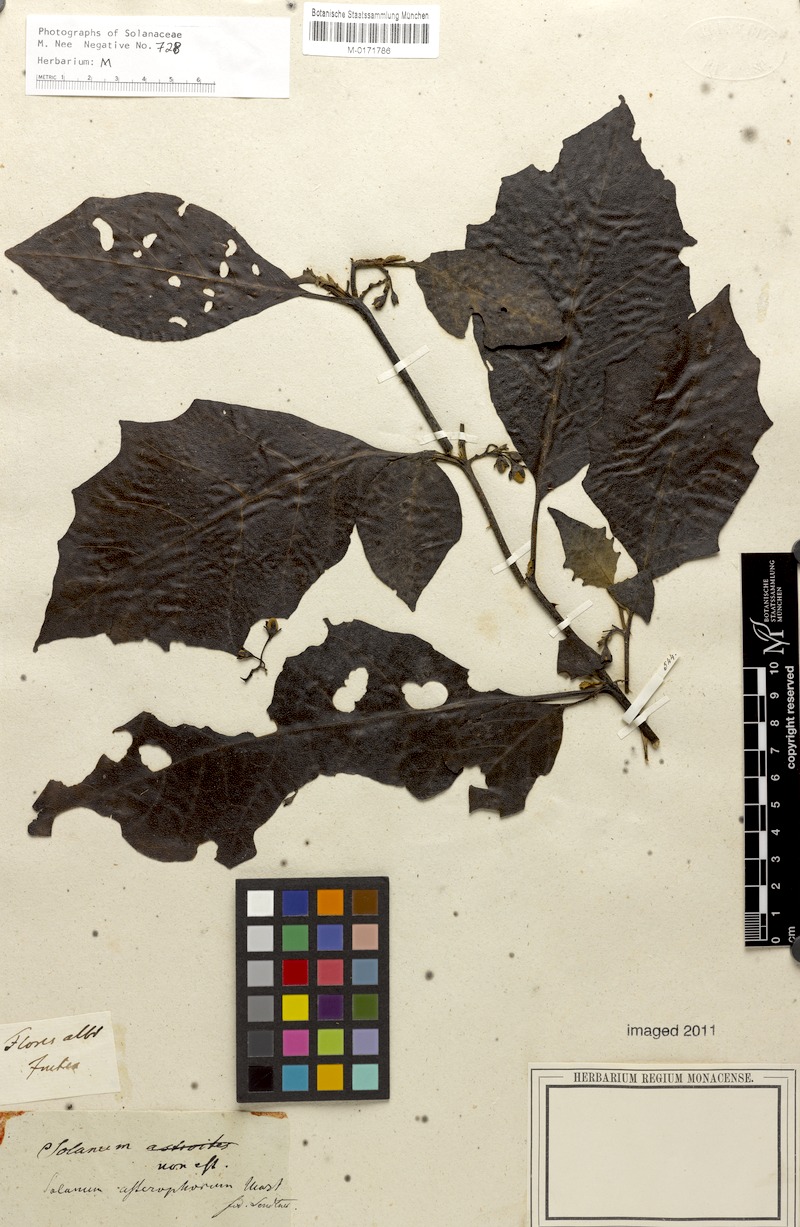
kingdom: Plantae
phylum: Tracheophyta
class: Magnoliopsida
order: Solanales
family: Solanaceae
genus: Solanum
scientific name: Solanum asterophorum
